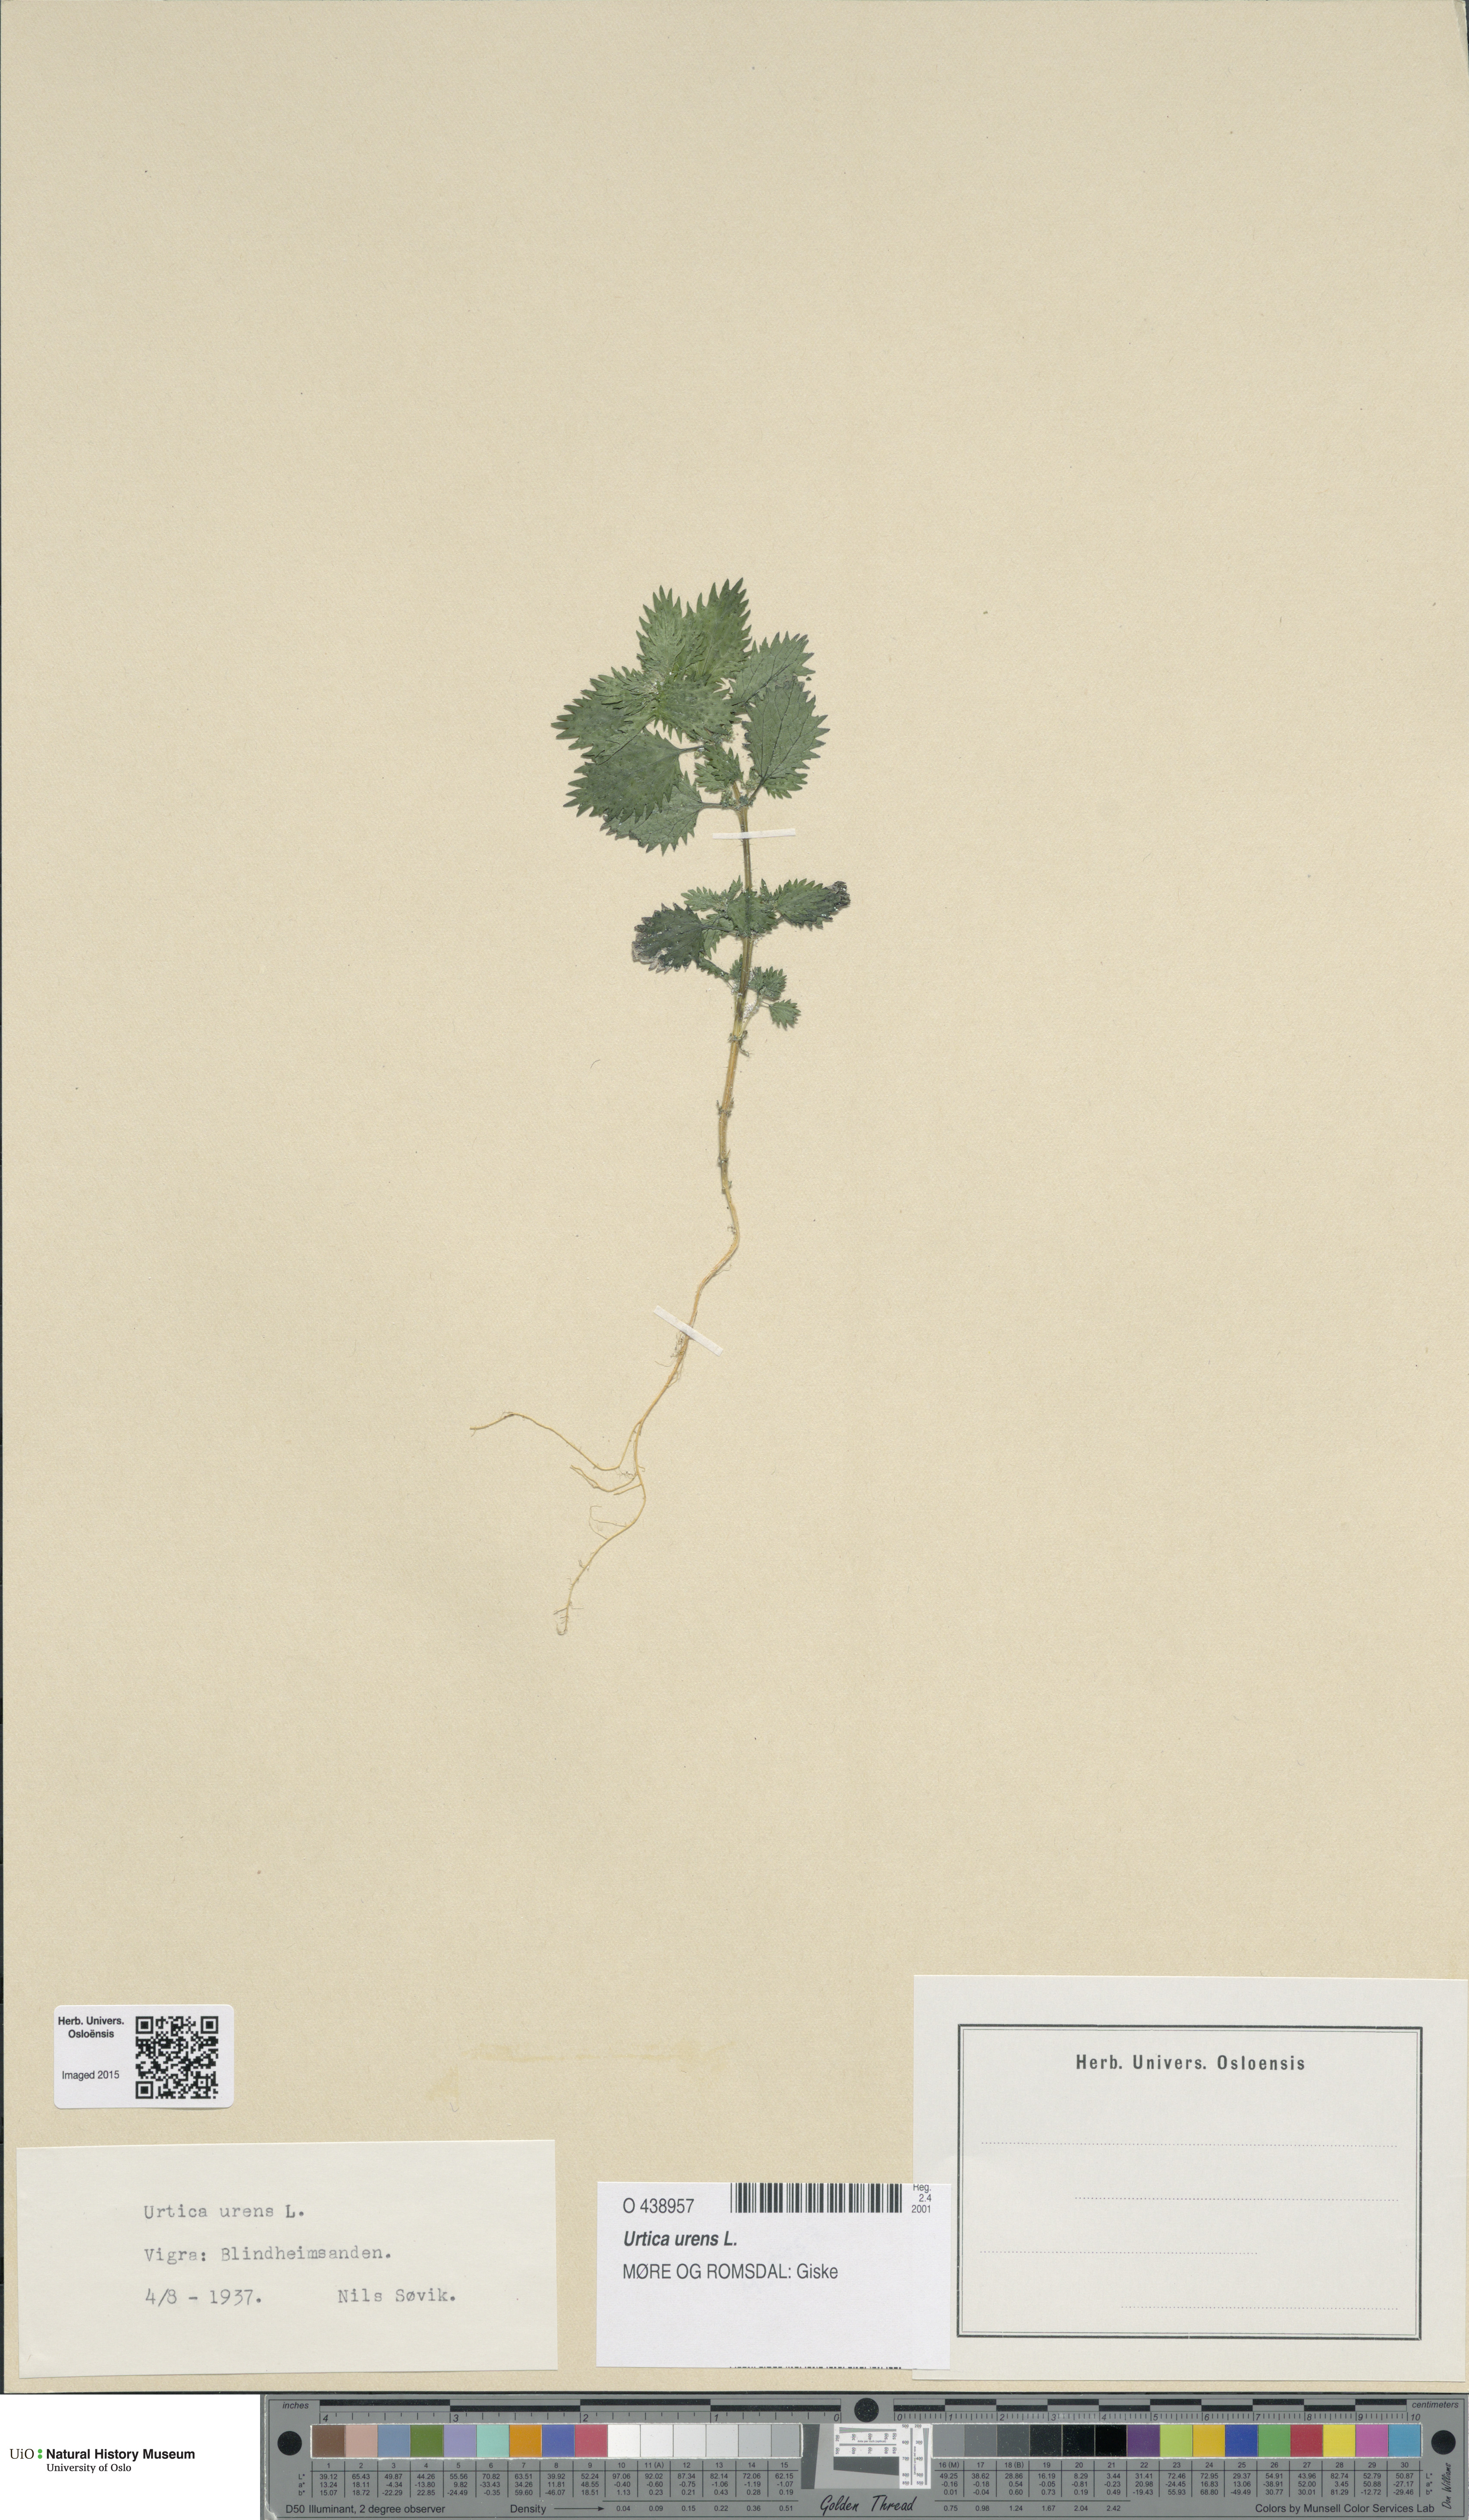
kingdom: Plantae
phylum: Tracheophyta
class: Magnoliopsida
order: Rosales
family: Urticaceae
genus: Urtica
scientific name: Urtica urens
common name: Dwarf nettle
